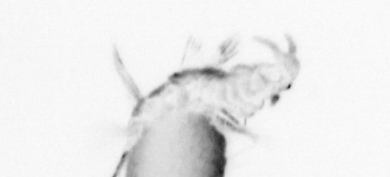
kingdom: Animalia
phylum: Annelida
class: Polychaeta
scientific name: Polychaeta
